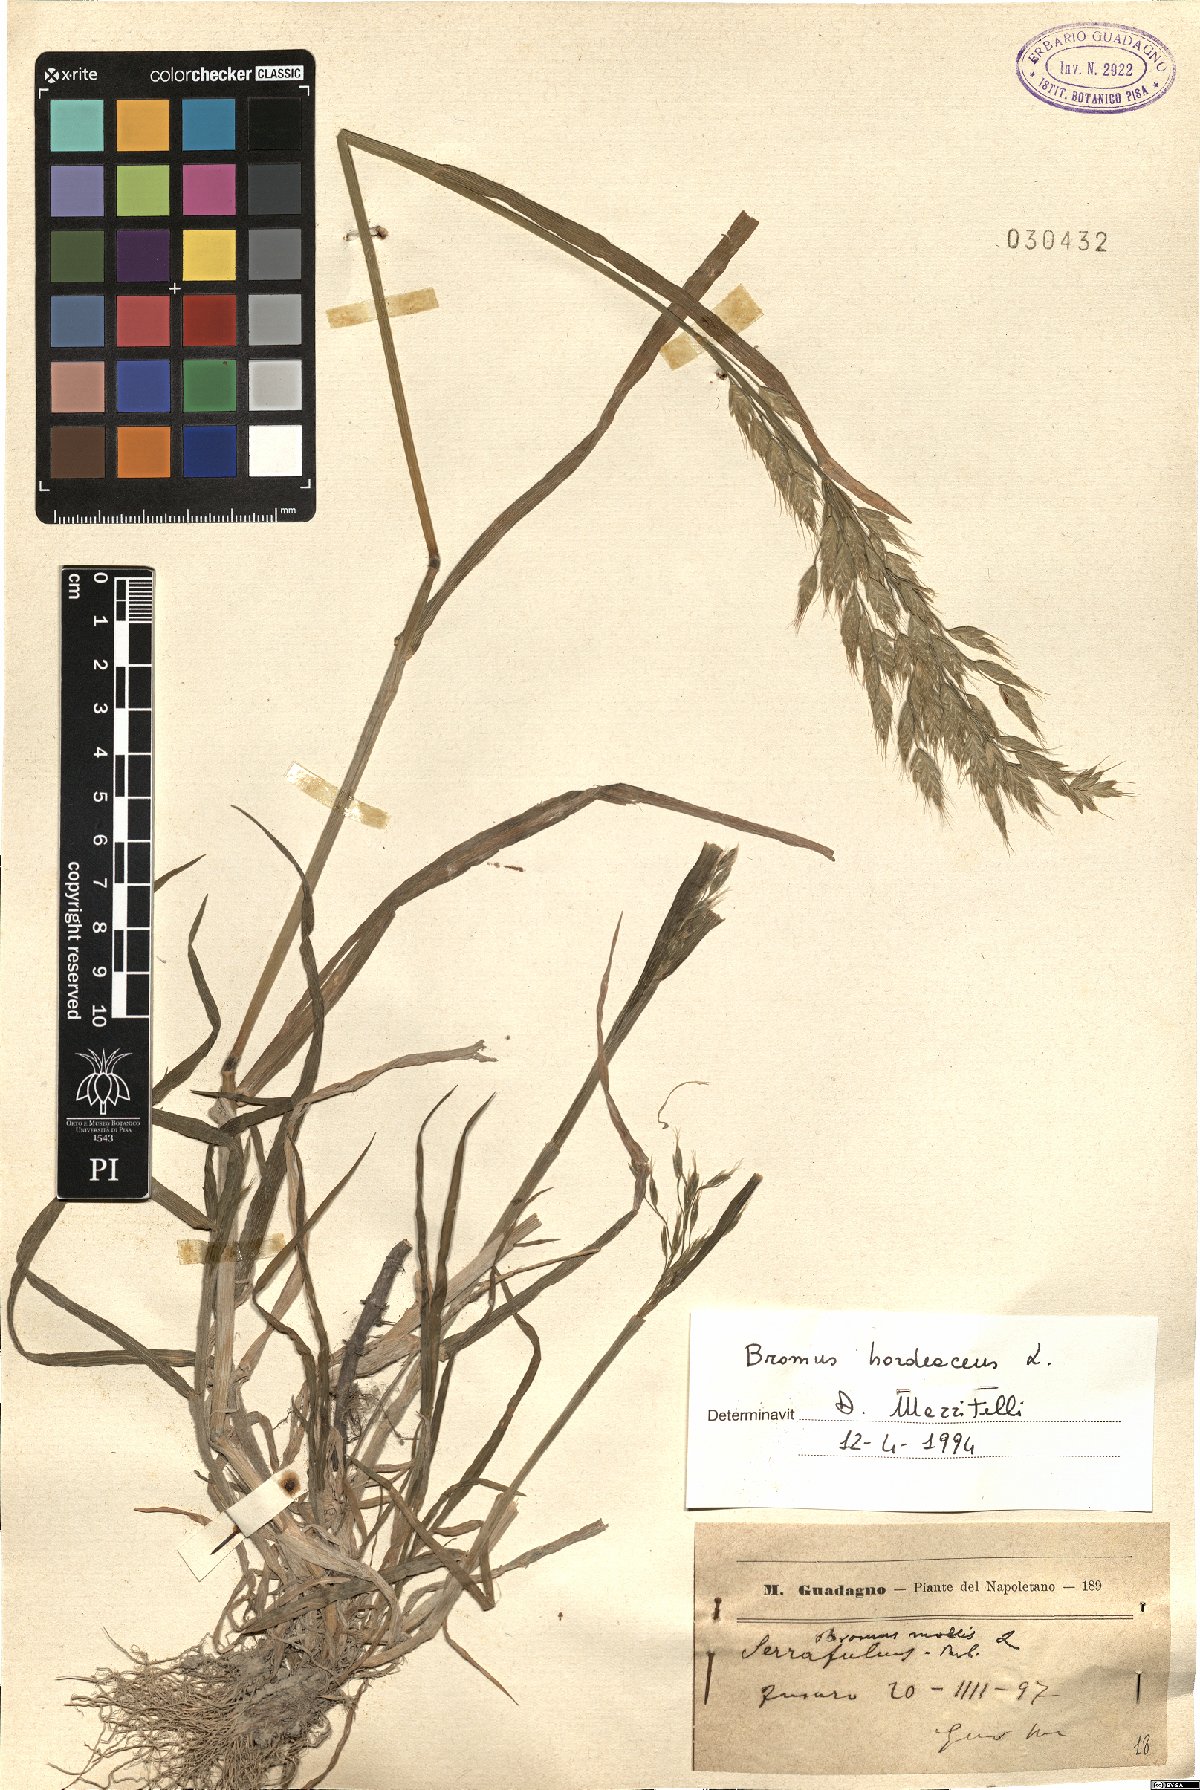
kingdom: Plantae
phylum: Tracheophyta
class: Liliopsida
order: Poales
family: Poaceae
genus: Bromus
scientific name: Bromus hordeaceus
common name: Soft brome
